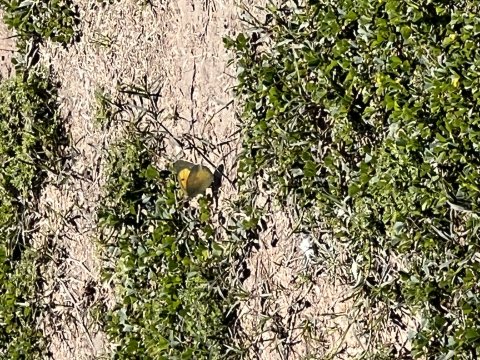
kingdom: Animalia
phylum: Arthropoda
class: Insecta
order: Lepidoptera
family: Pieridae
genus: Colias
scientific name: Colias eurytheme
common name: Orange Sulphur
